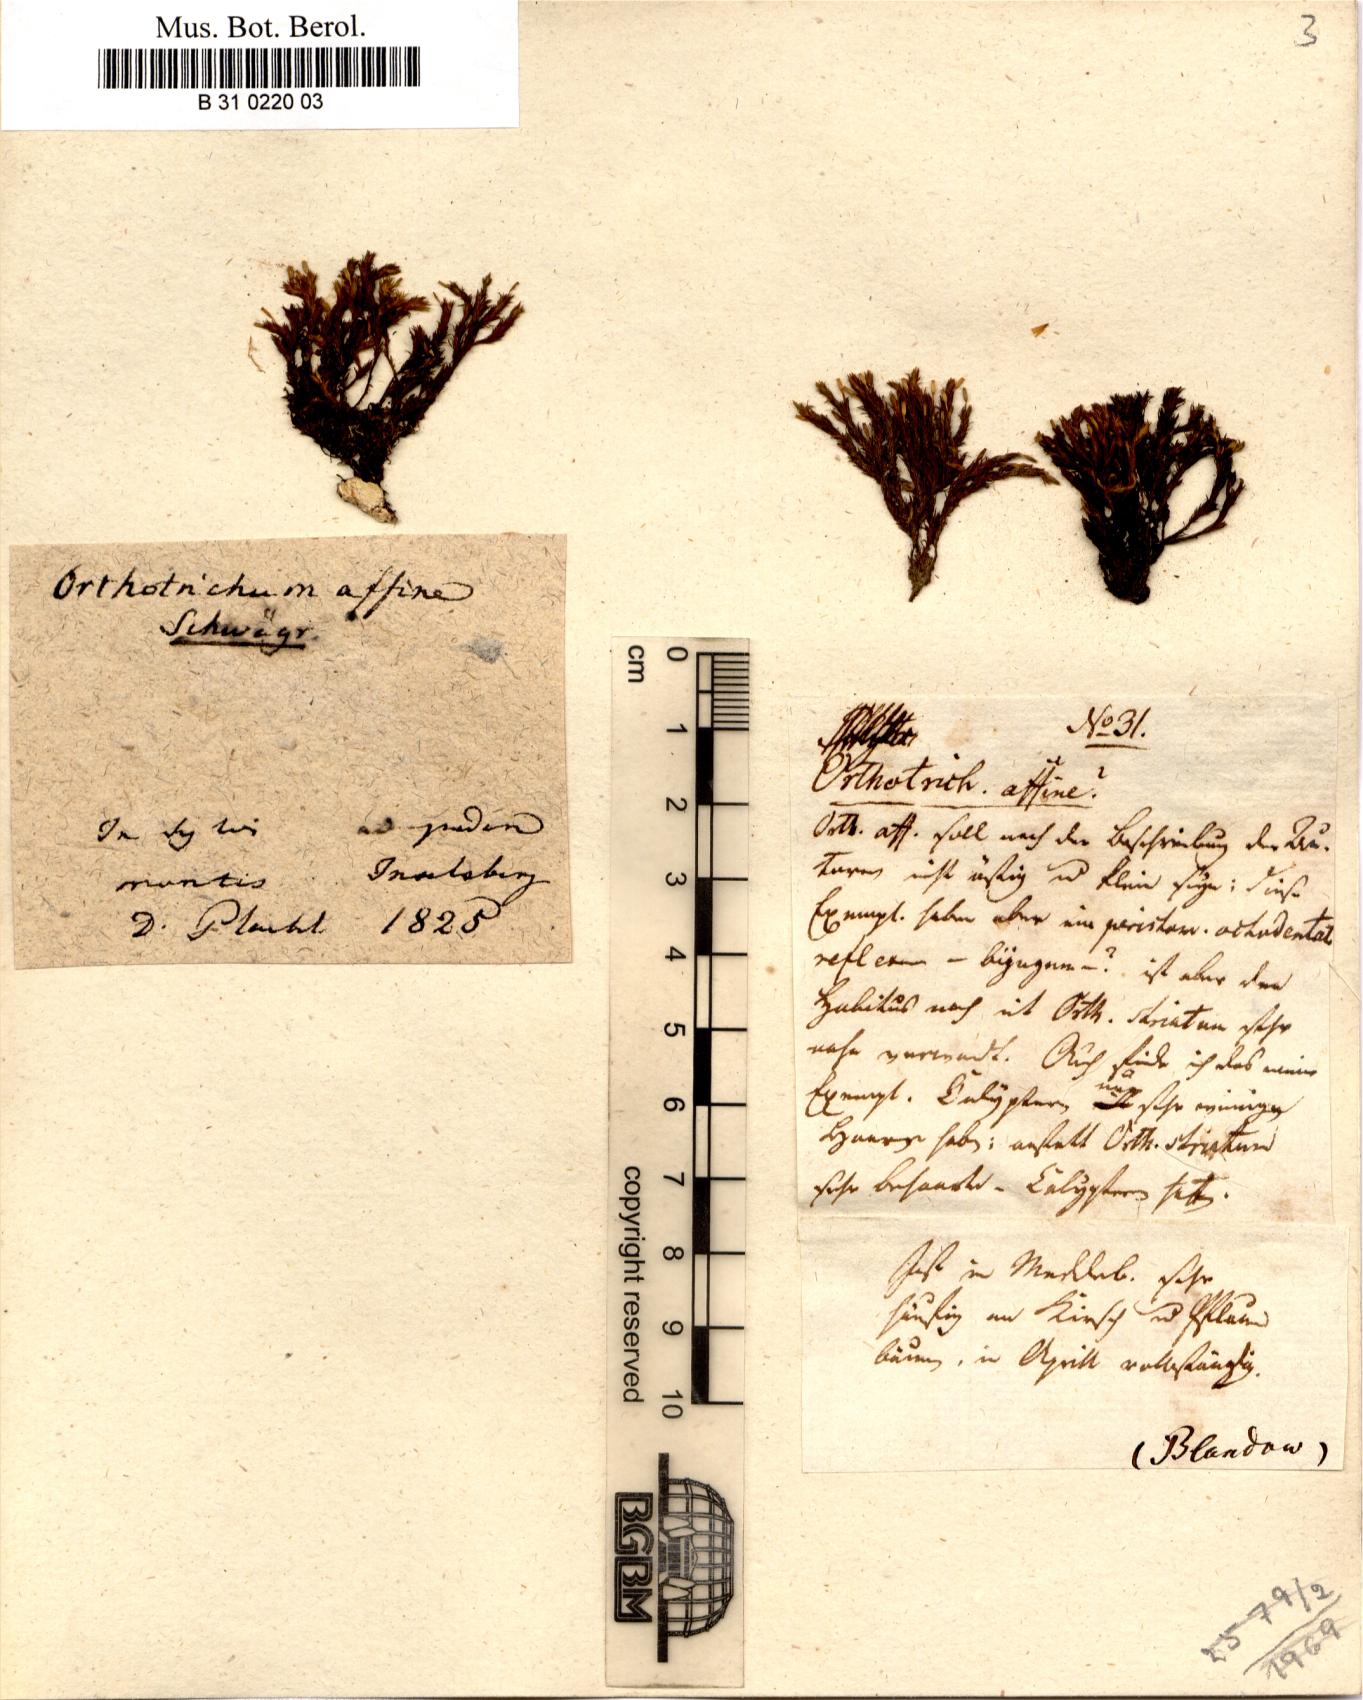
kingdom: Plantae
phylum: Bryophyta
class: Bryopsida
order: Orthotrichales
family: Orthotrichaceae
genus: Lewinskya
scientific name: Lewinskya affinis
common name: Wood bristle-moss
